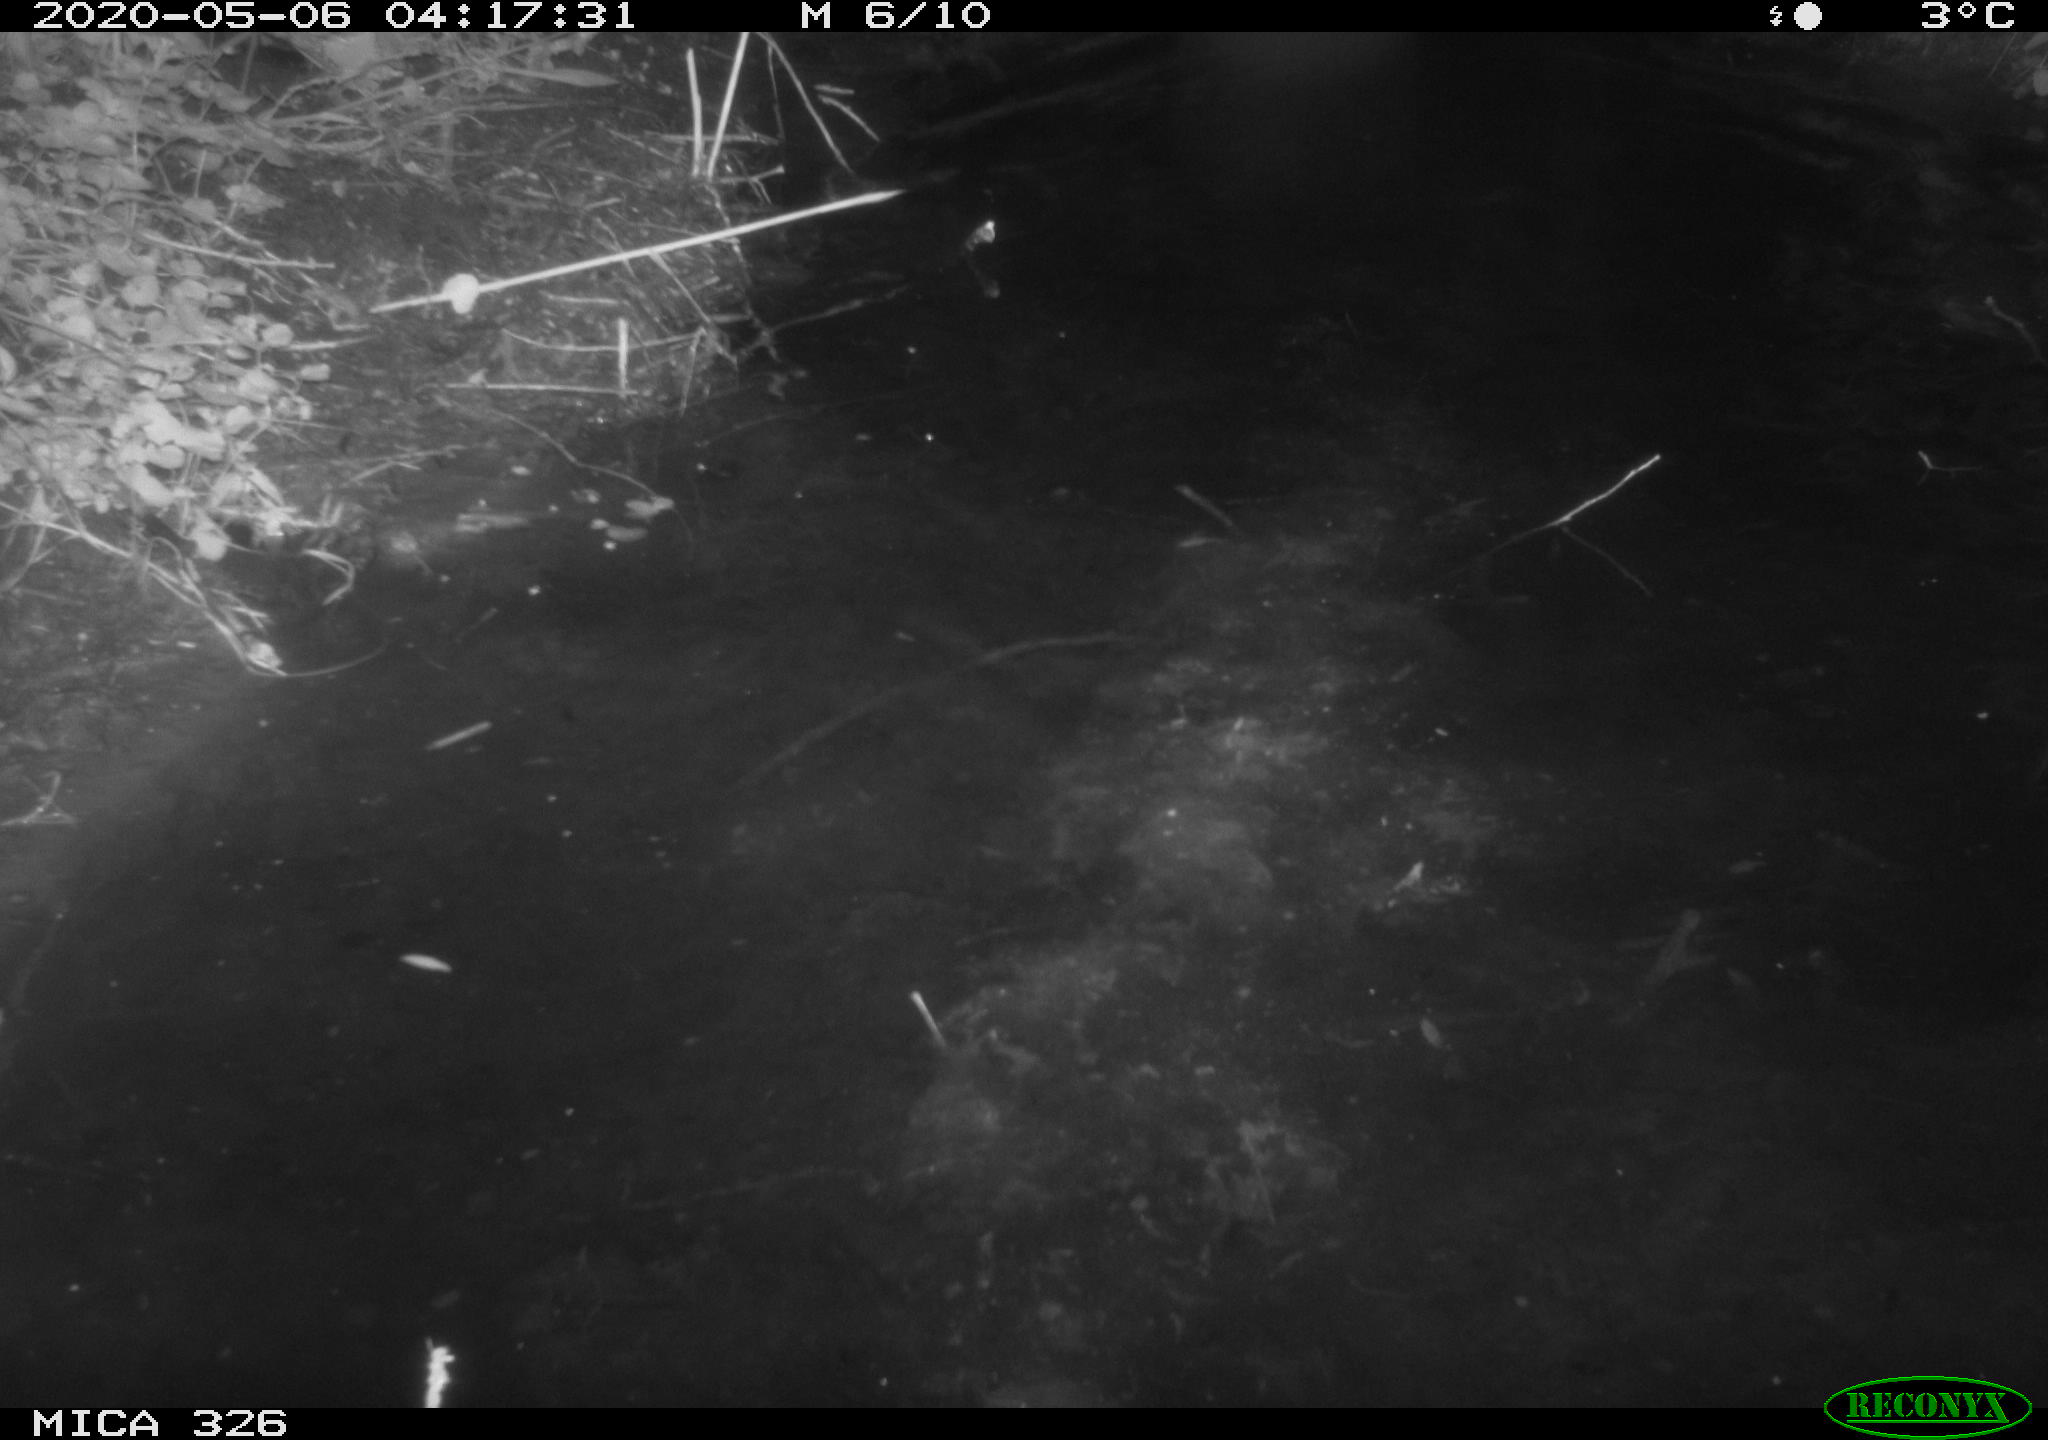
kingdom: Animalia
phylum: Chordata
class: Mammalia
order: Rodentia
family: Myocastoridae
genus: Myocastor
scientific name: Myocastor coypus
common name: Coypu
